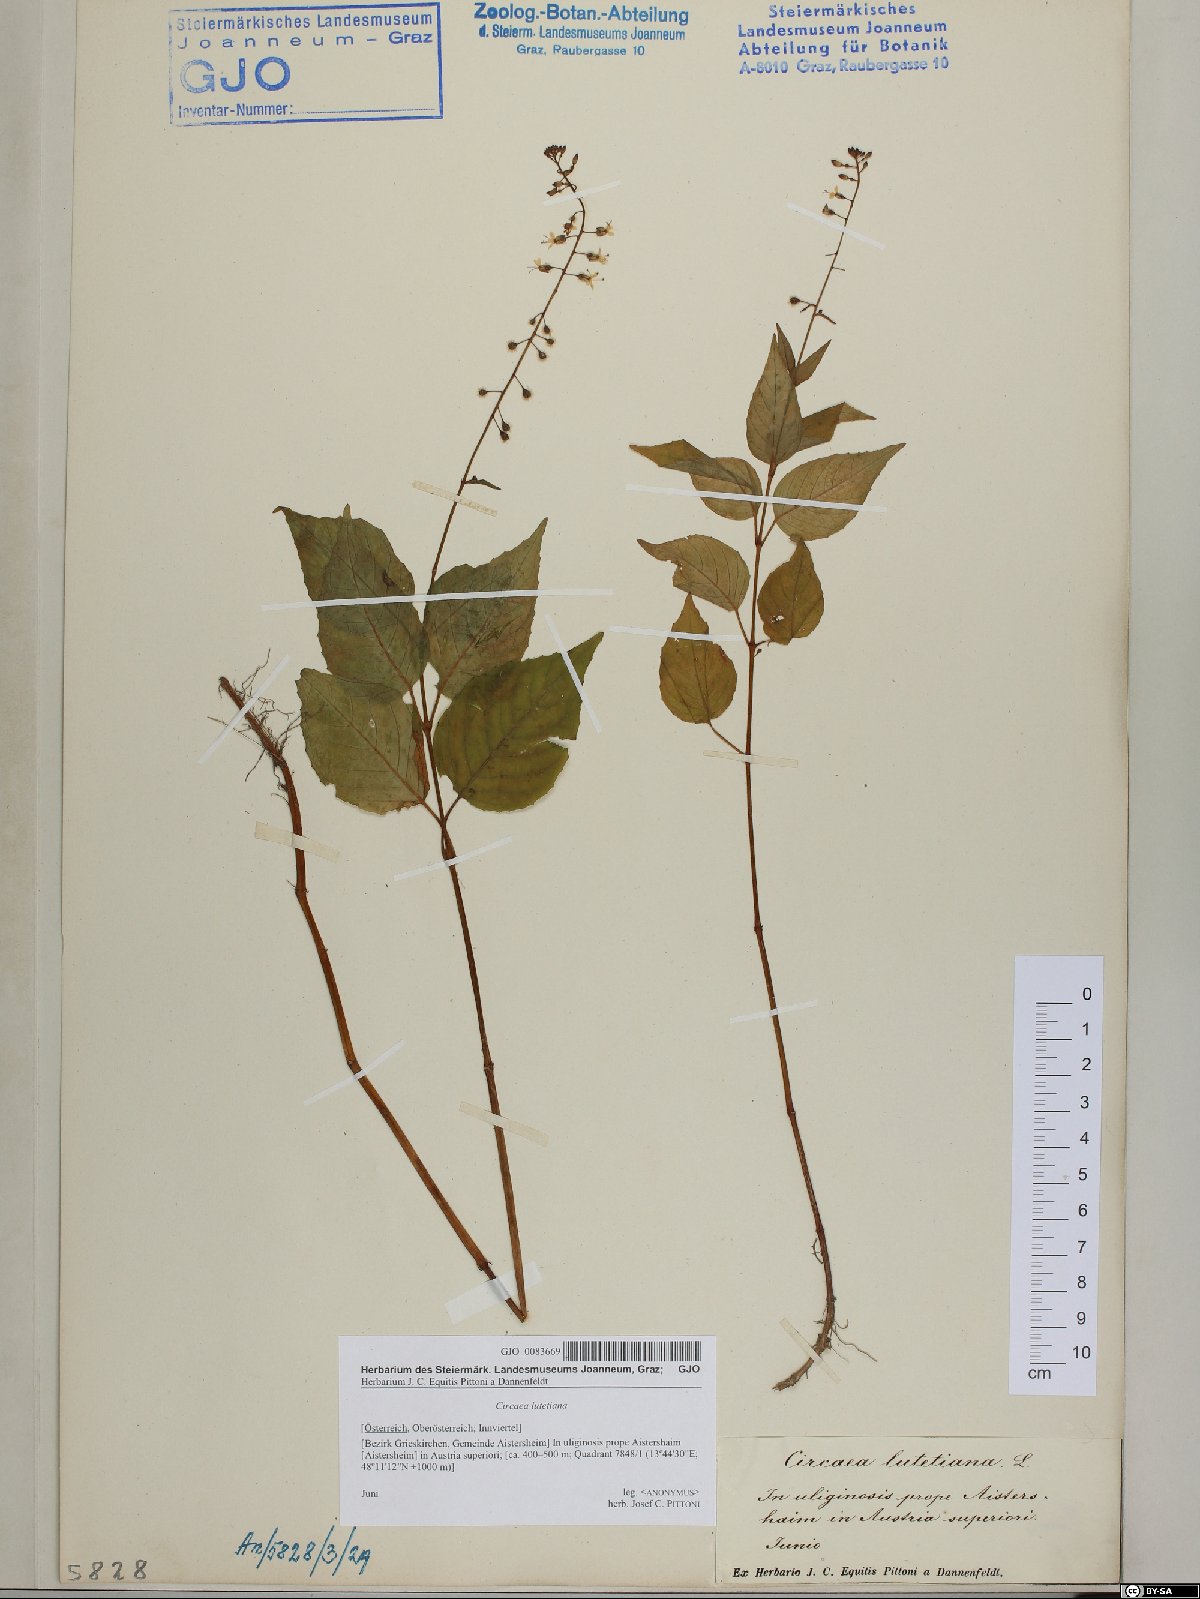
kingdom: Plantae
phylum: Tracheophyta
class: Magnoliopsida
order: Myrtales
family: Onagraceae
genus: Circaea
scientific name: Circaea lutetiana
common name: Enchanter's-nightshade
